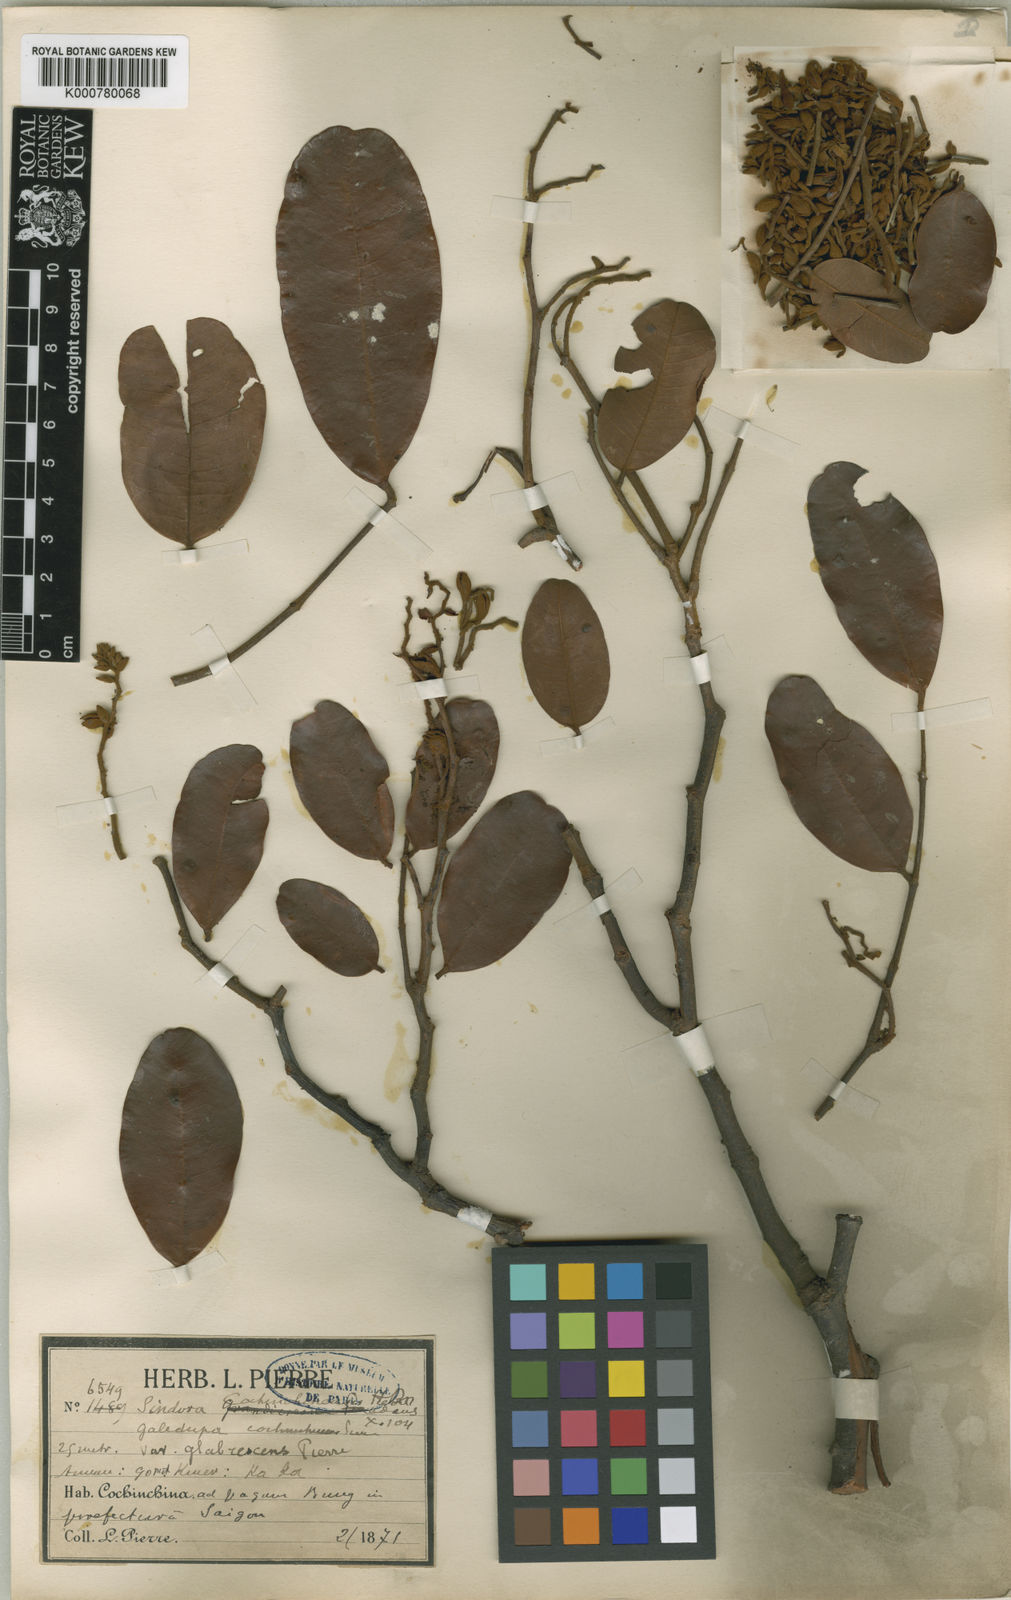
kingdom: Plantae
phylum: Tracheophyta
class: Magnoliopsida
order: Fabales
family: Fabaceae
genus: Sindora
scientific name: Sindora siamensis
